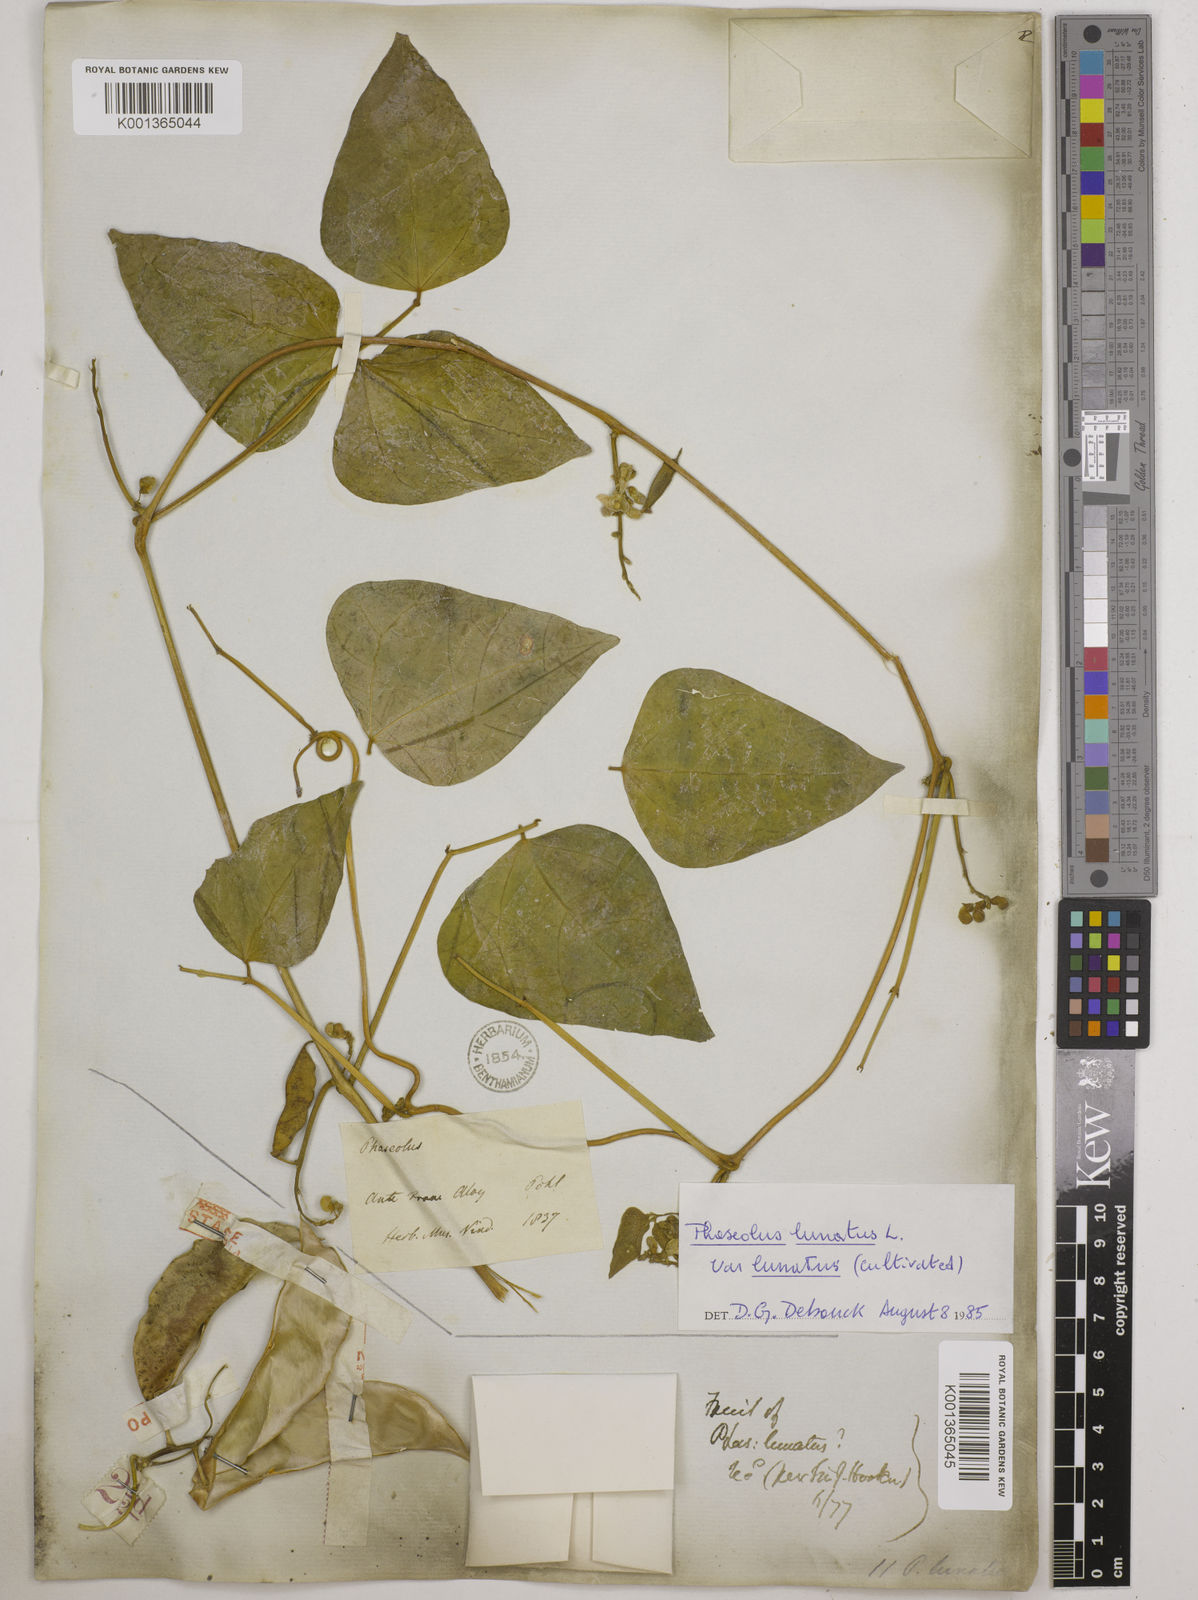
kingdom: Plantae
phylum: Tracheophyta
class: Magnoliopsida
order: Fabales
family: Fabaceae
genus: Phaseolus
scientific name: Phaseolus
